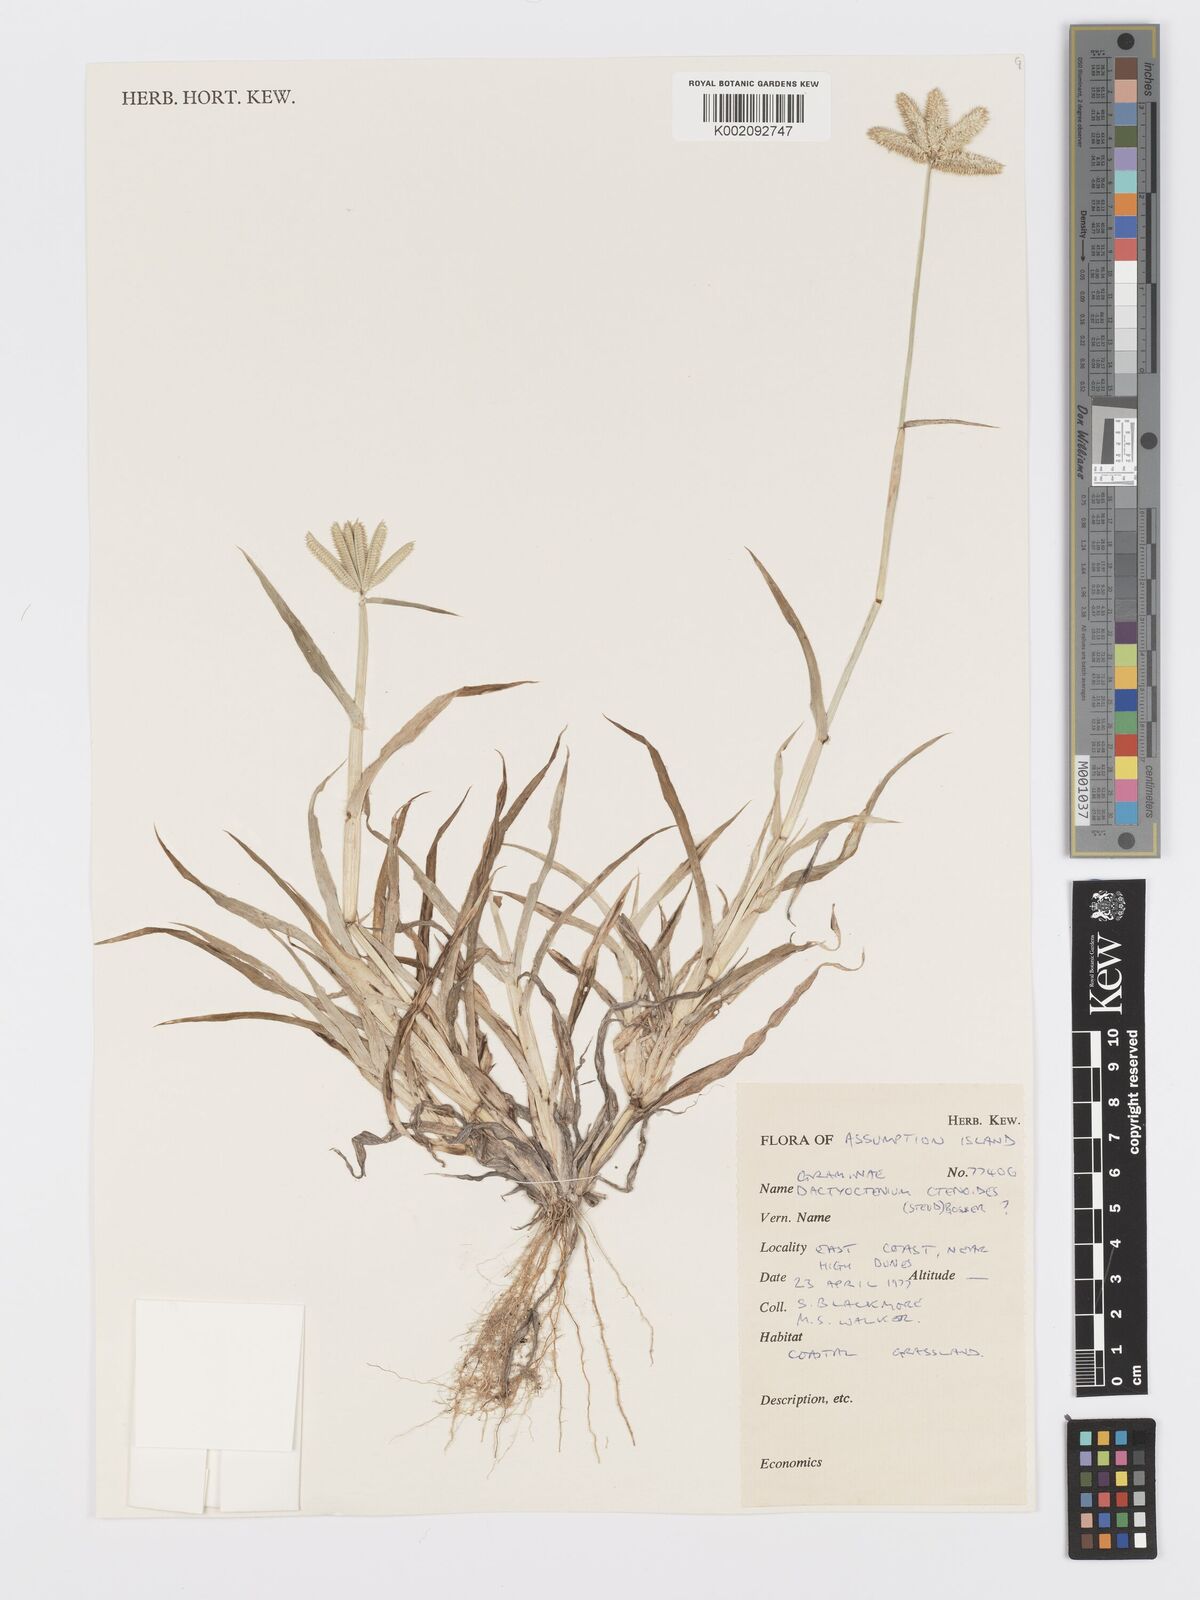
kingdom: Plantae
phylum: Tracheophyta
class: Liliopsida
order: Poales
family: Poaceae
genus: Dactyloctenium
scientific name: Dactyloctenium ctenoides
